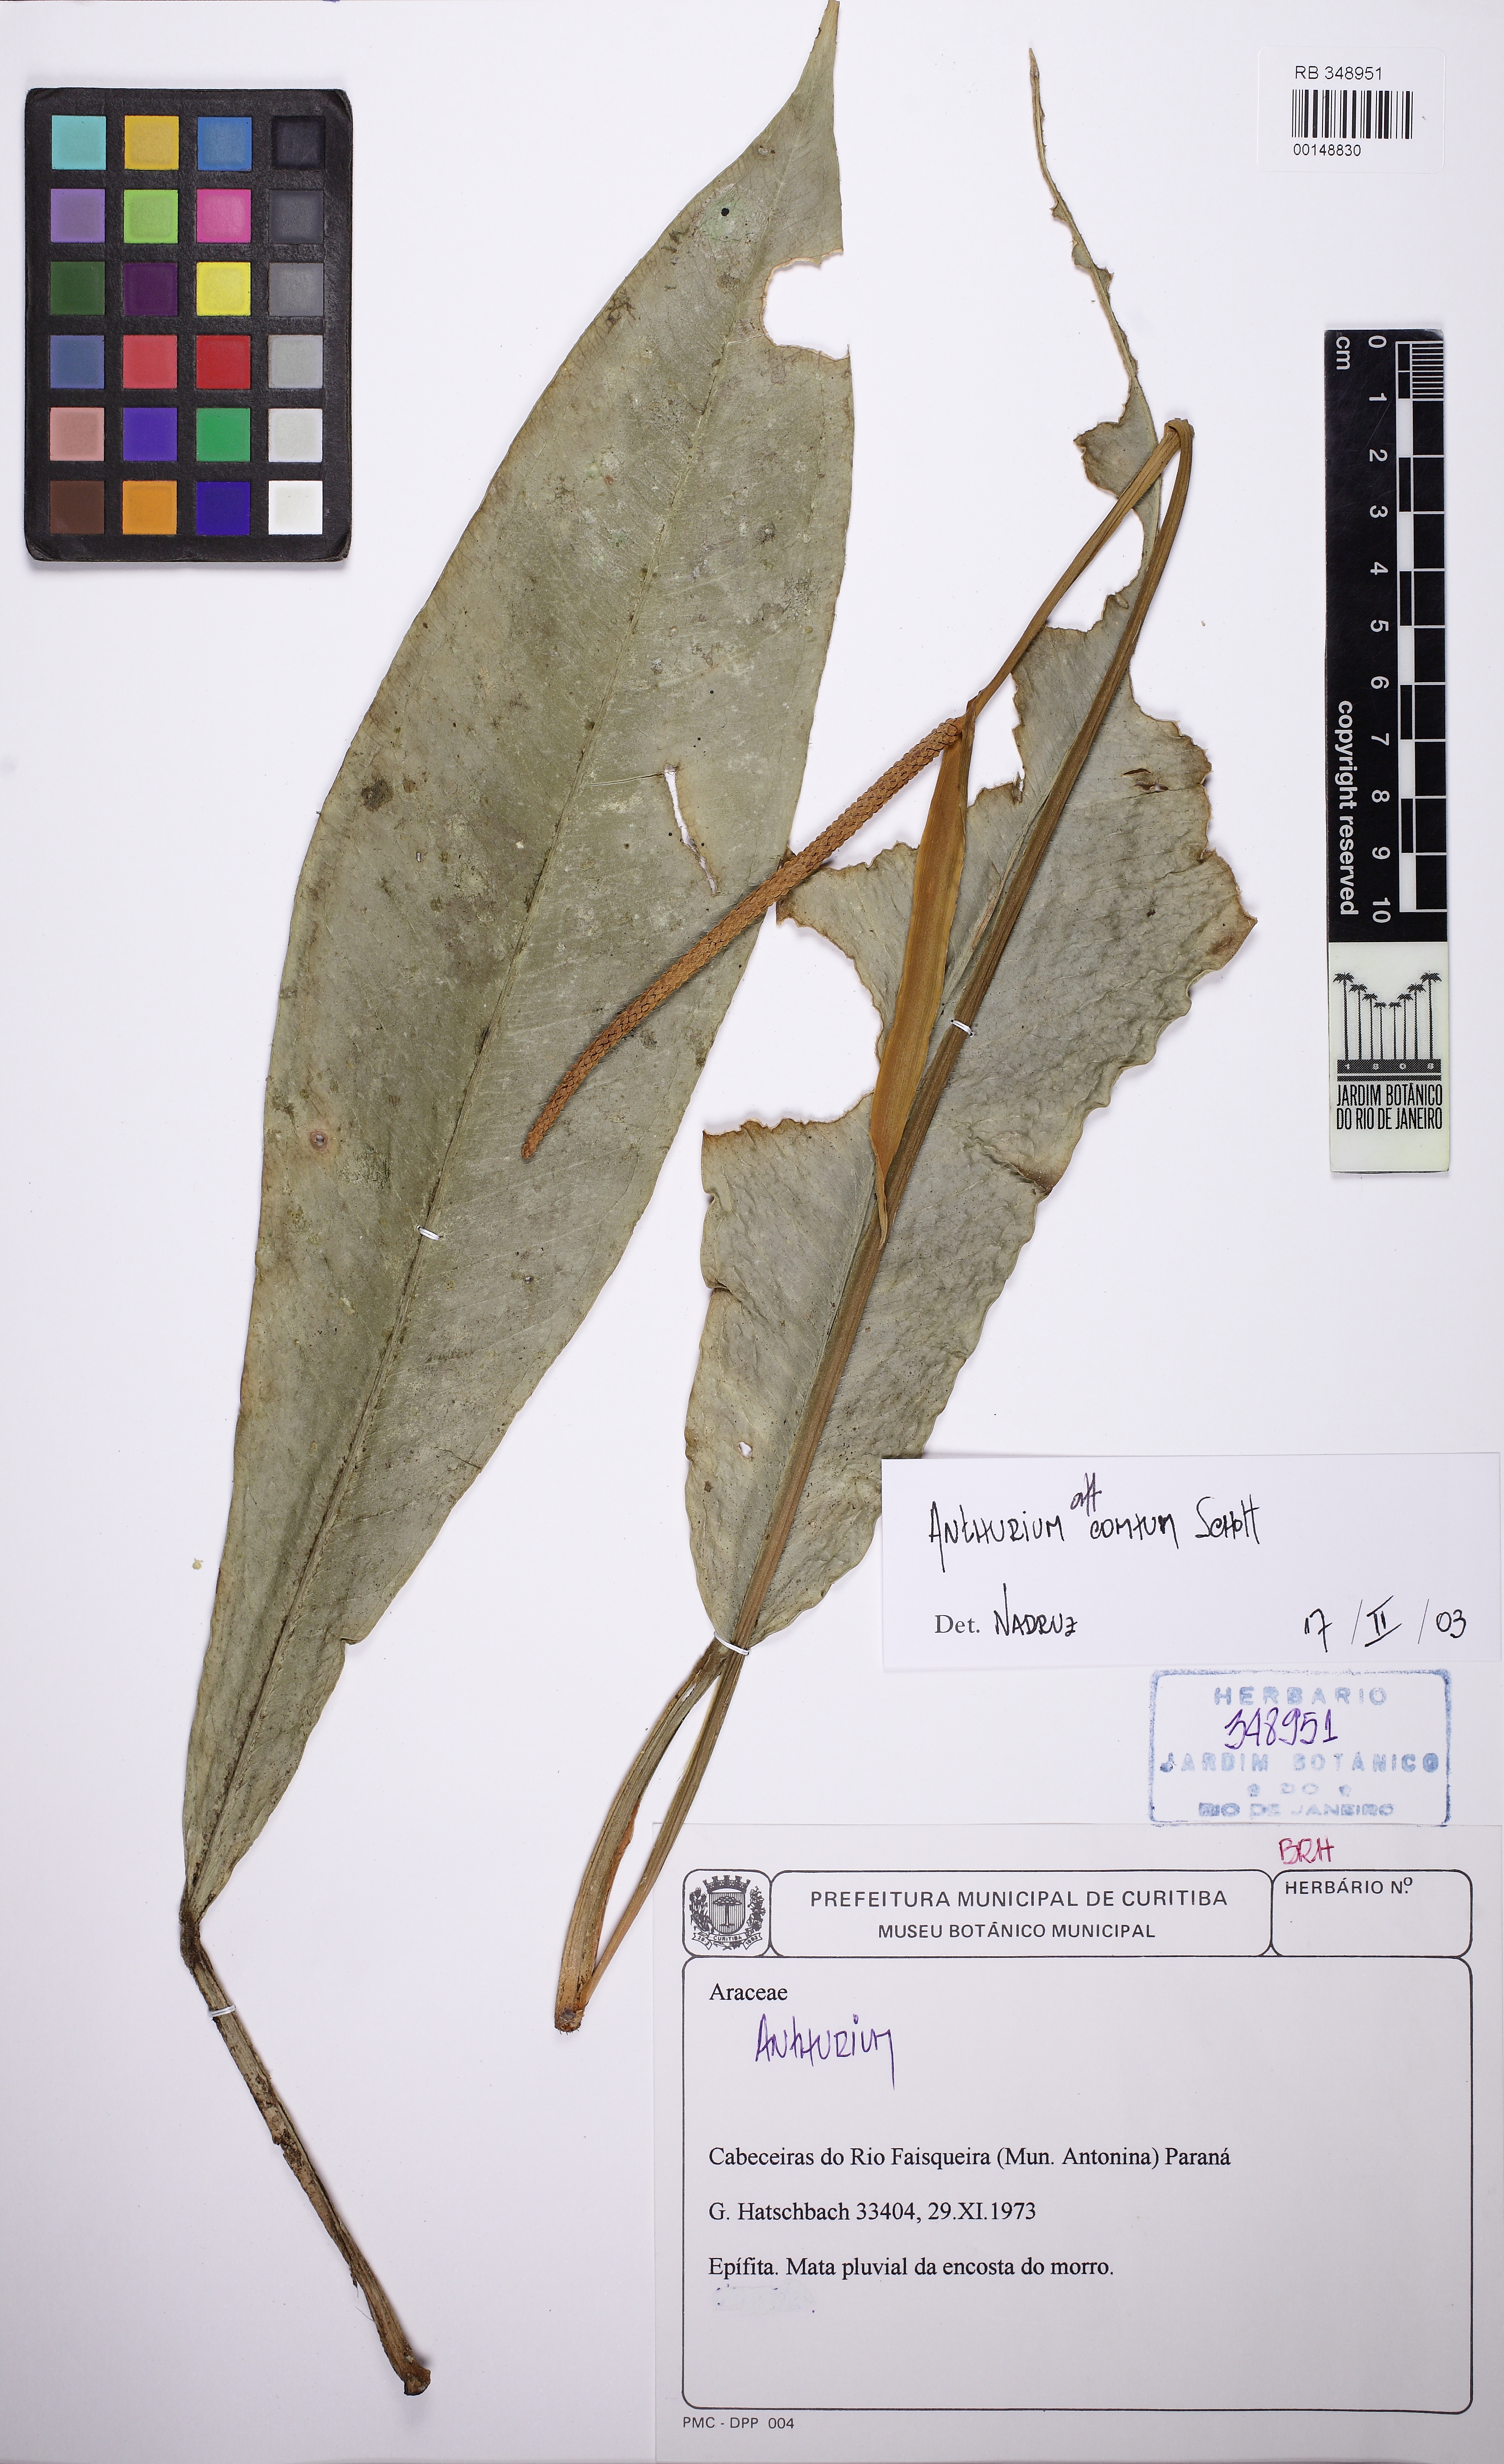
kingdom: Plantae
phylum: Tracheophyta
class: Liliopsida
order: Alismatales
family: Araceae
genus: Anthurium
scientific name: Anthurium comtum
